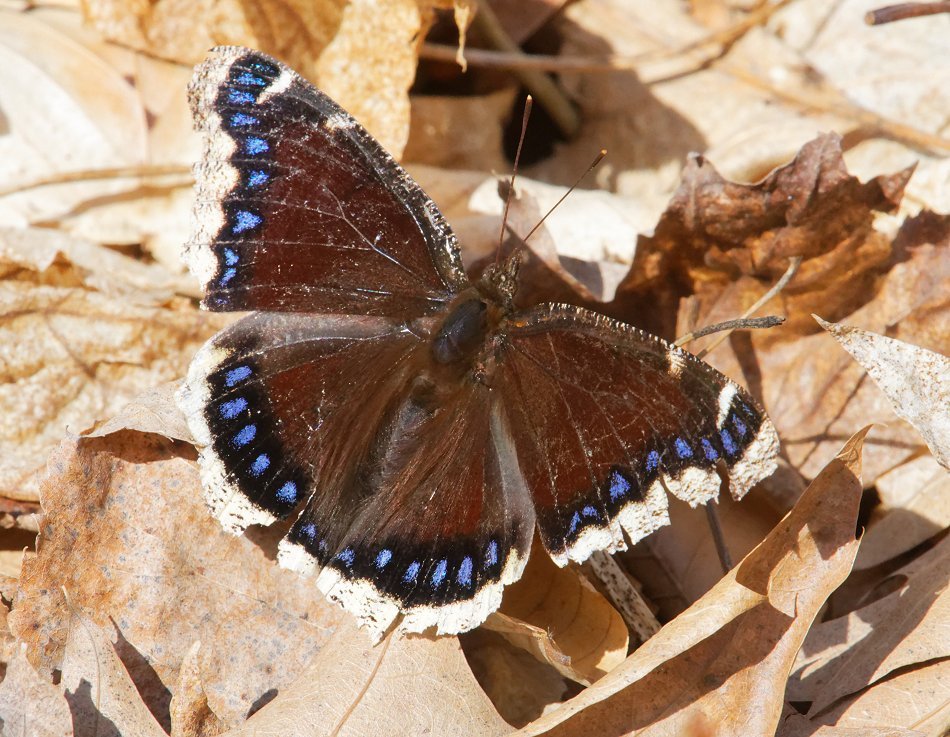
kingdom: Animalia
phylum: Arthropoda
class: Insecta
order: Lepidoptera
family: Nymphalidae
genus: Nymphalis
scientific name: Nymphalis antiopa
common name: Mourning Cloak
